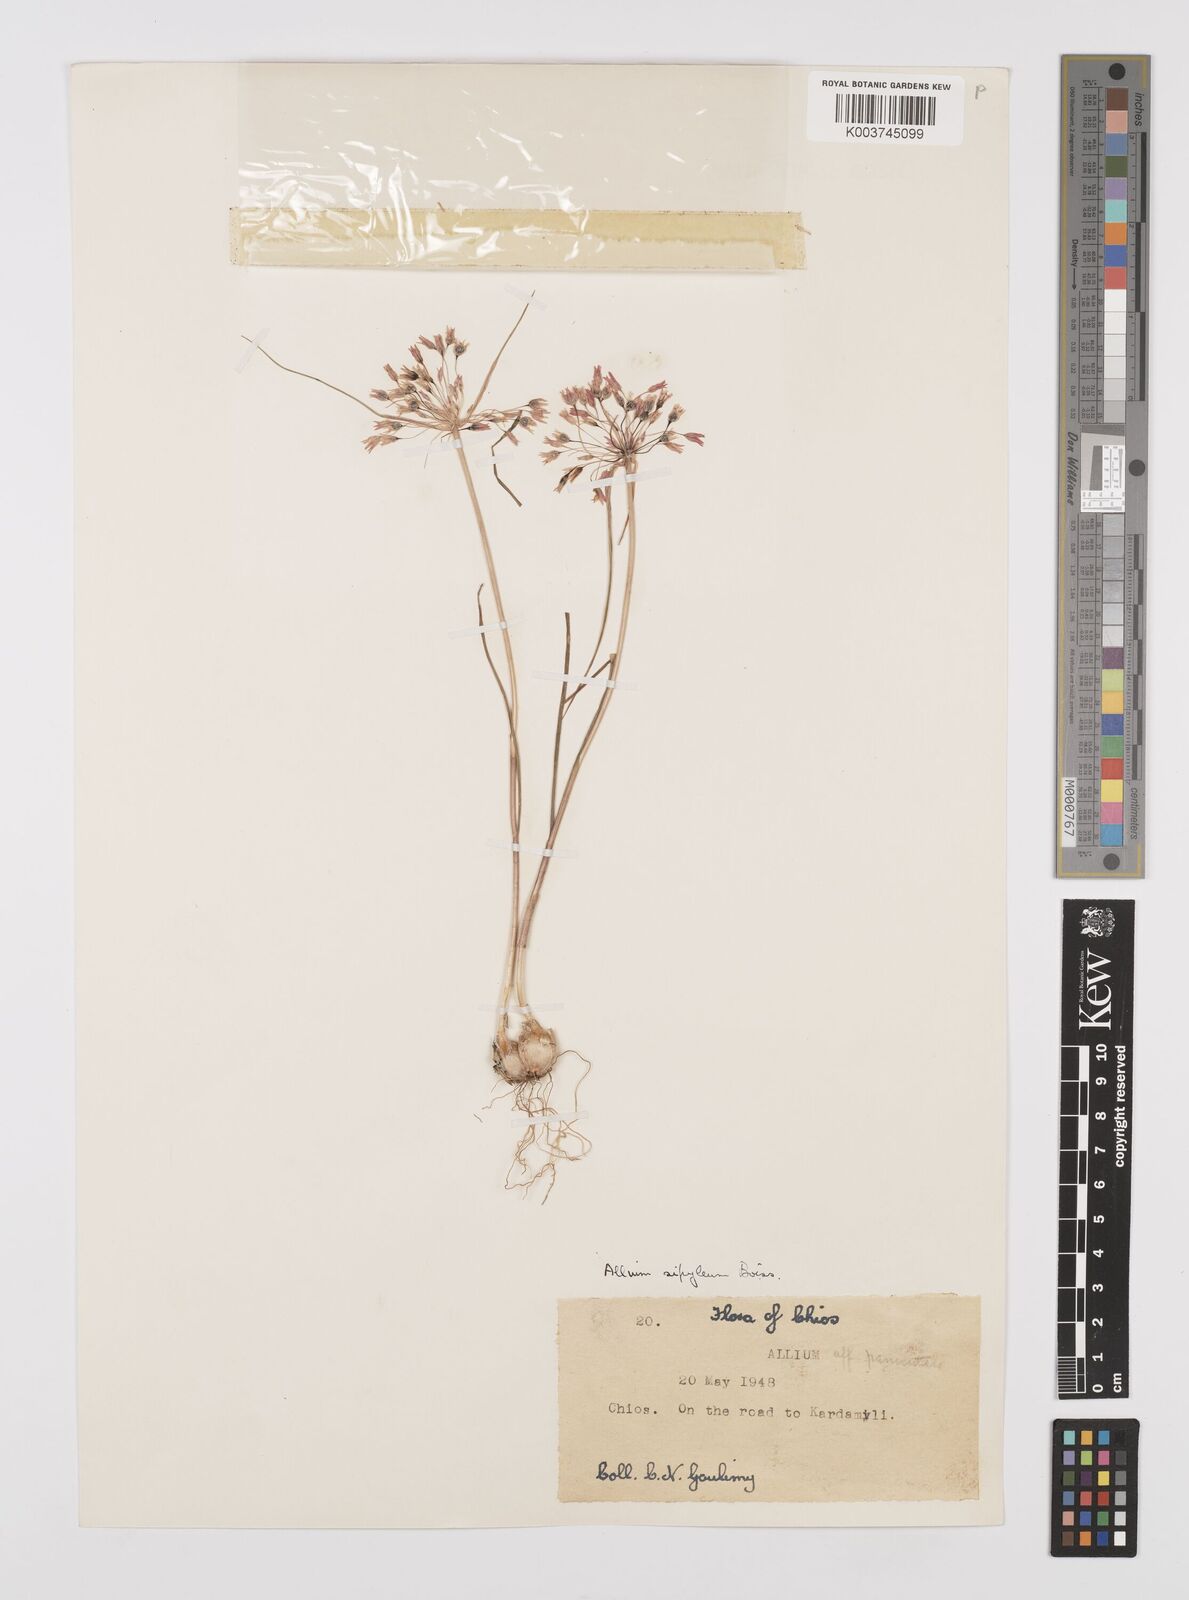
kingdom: Plantae
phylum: Tracheophyta
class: Liliopsida
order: Asparagales
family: Amaryllidaceae
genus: Allium
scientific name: Allium sipyleum
